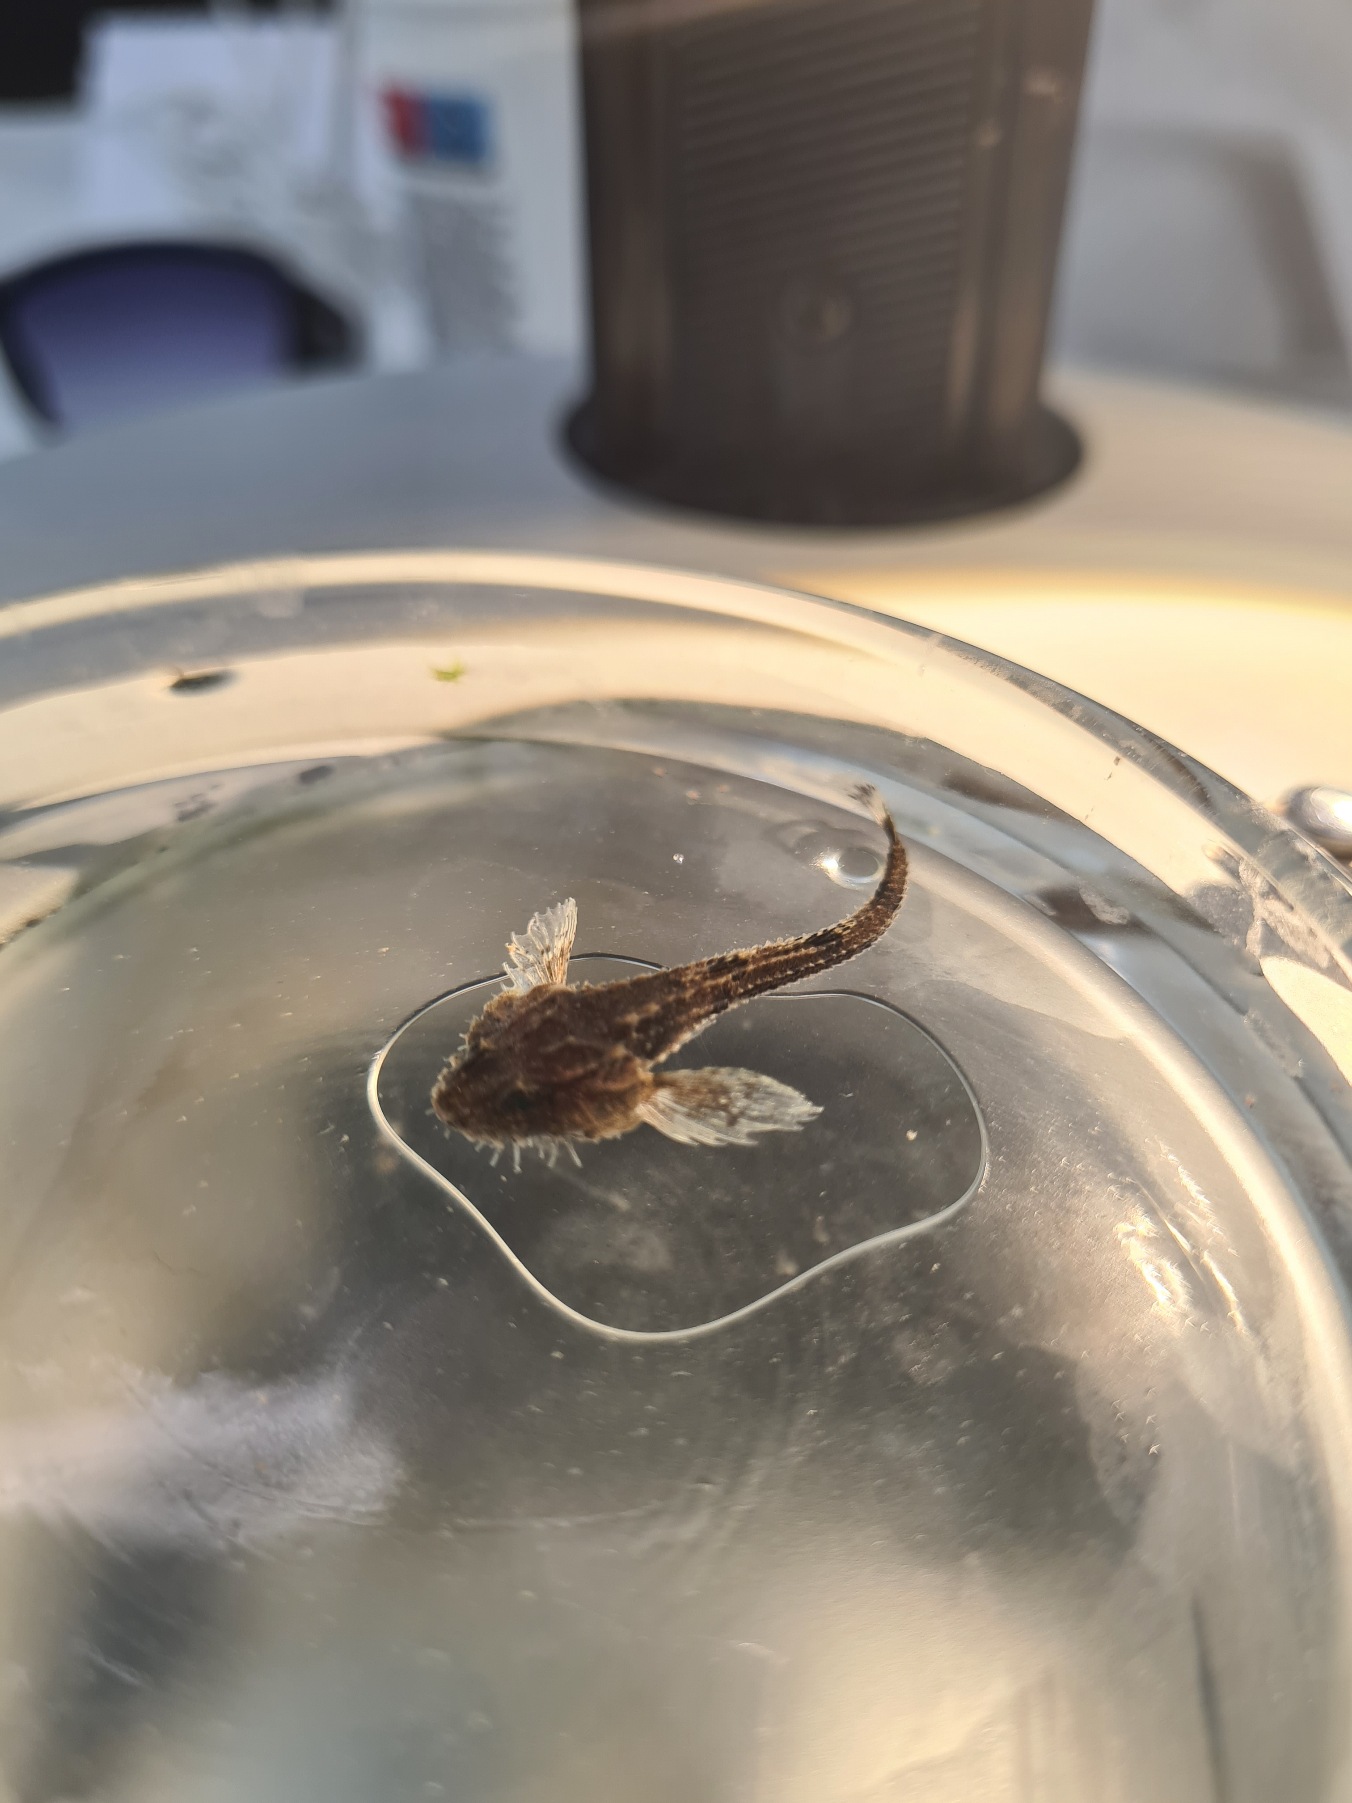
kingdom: Animalia
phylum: Chordata
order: Scorpaeniformes
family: Agonidae
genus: Agonus
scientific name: Agonus cataphractus
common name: Panserulk
